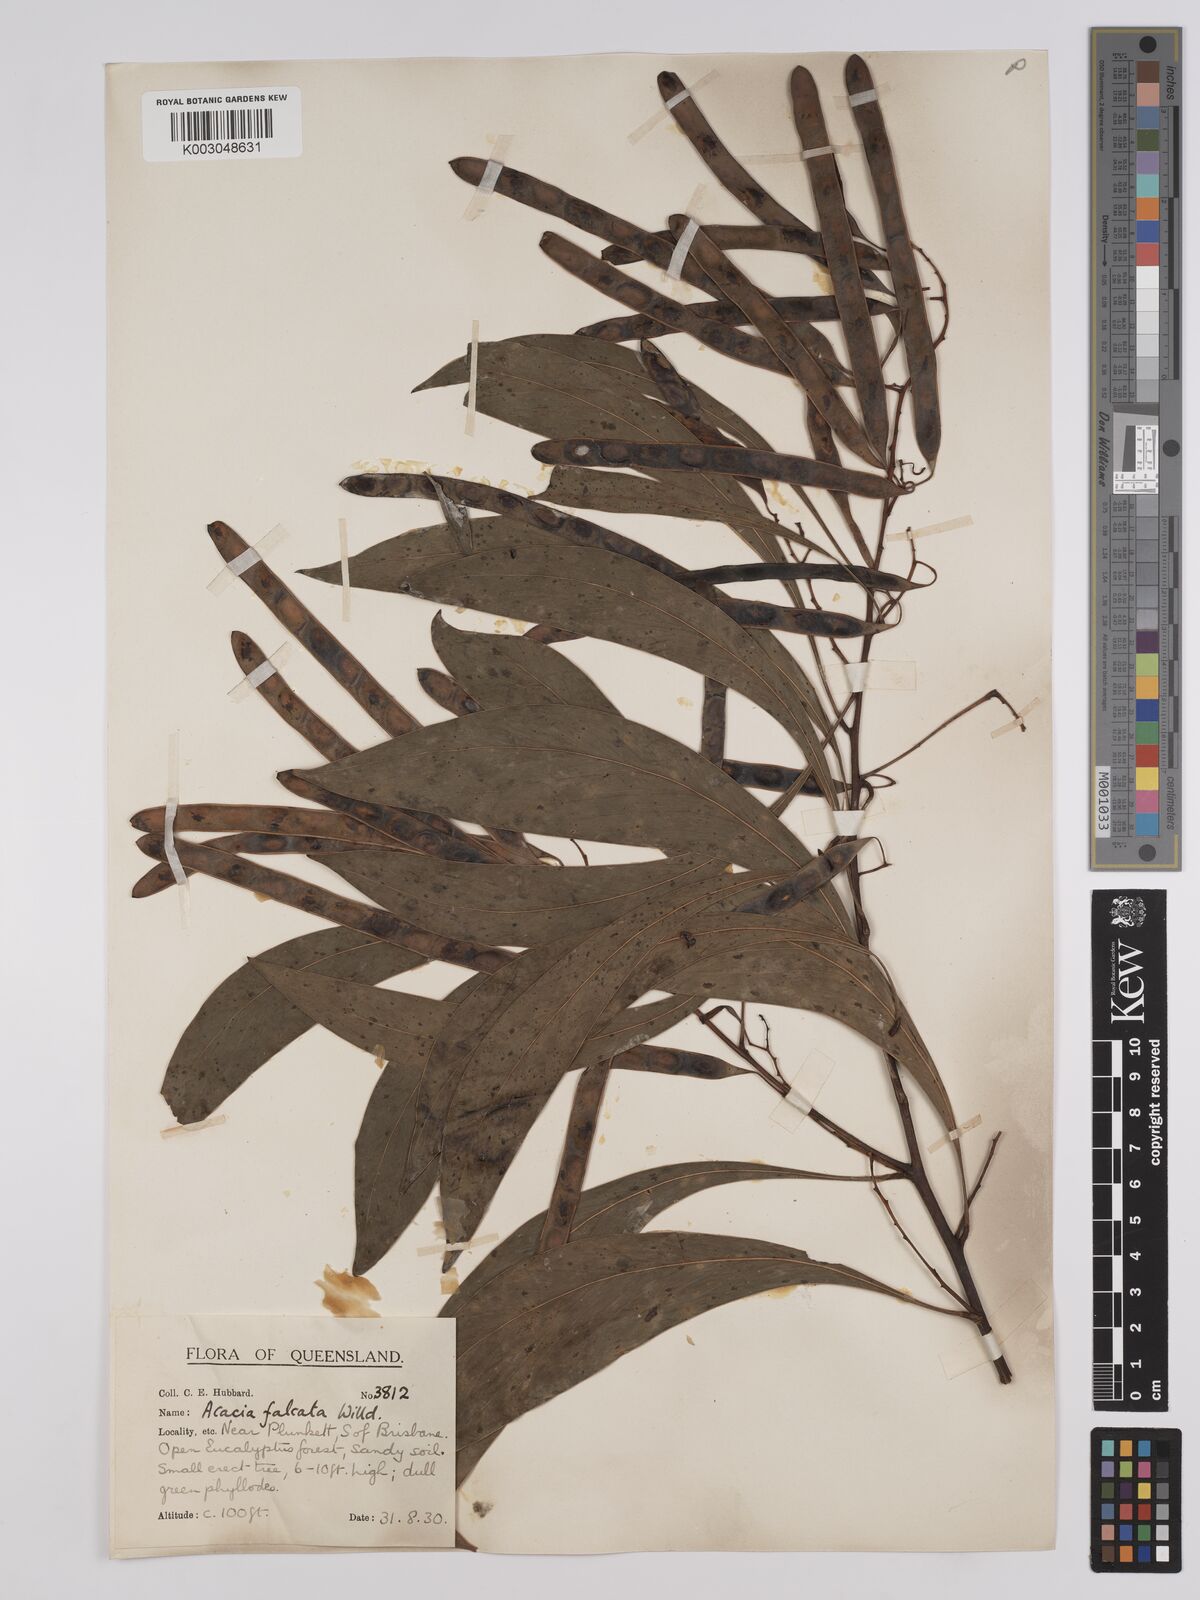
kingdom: Plantae
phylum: Tracheophyta
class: Magnoliopsida
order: Fabales
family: Fabaceae
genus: Acacia
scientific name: Acacia falcata
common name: Burra acacia
